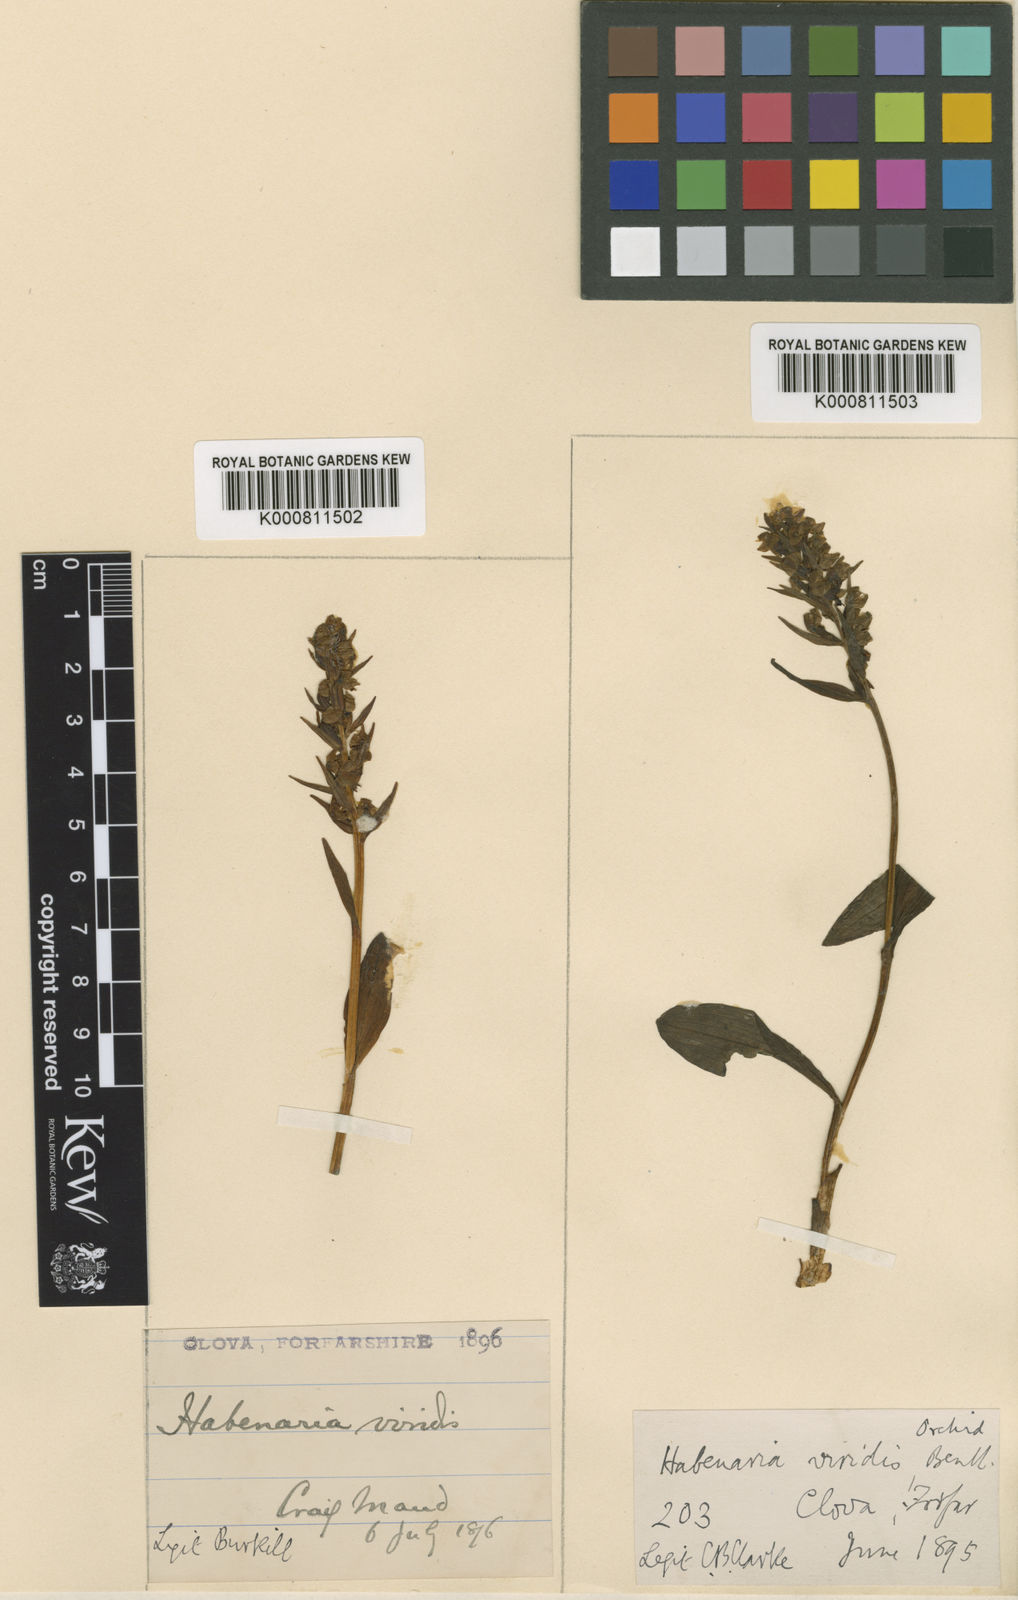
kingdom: Plantae
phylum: Tracheophyta
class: Liliopsida
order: Asparagales
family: Orchidaceae
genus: Dactylorhiza
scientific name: Dactylorhiza viridis
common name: Longbract frog orchid
